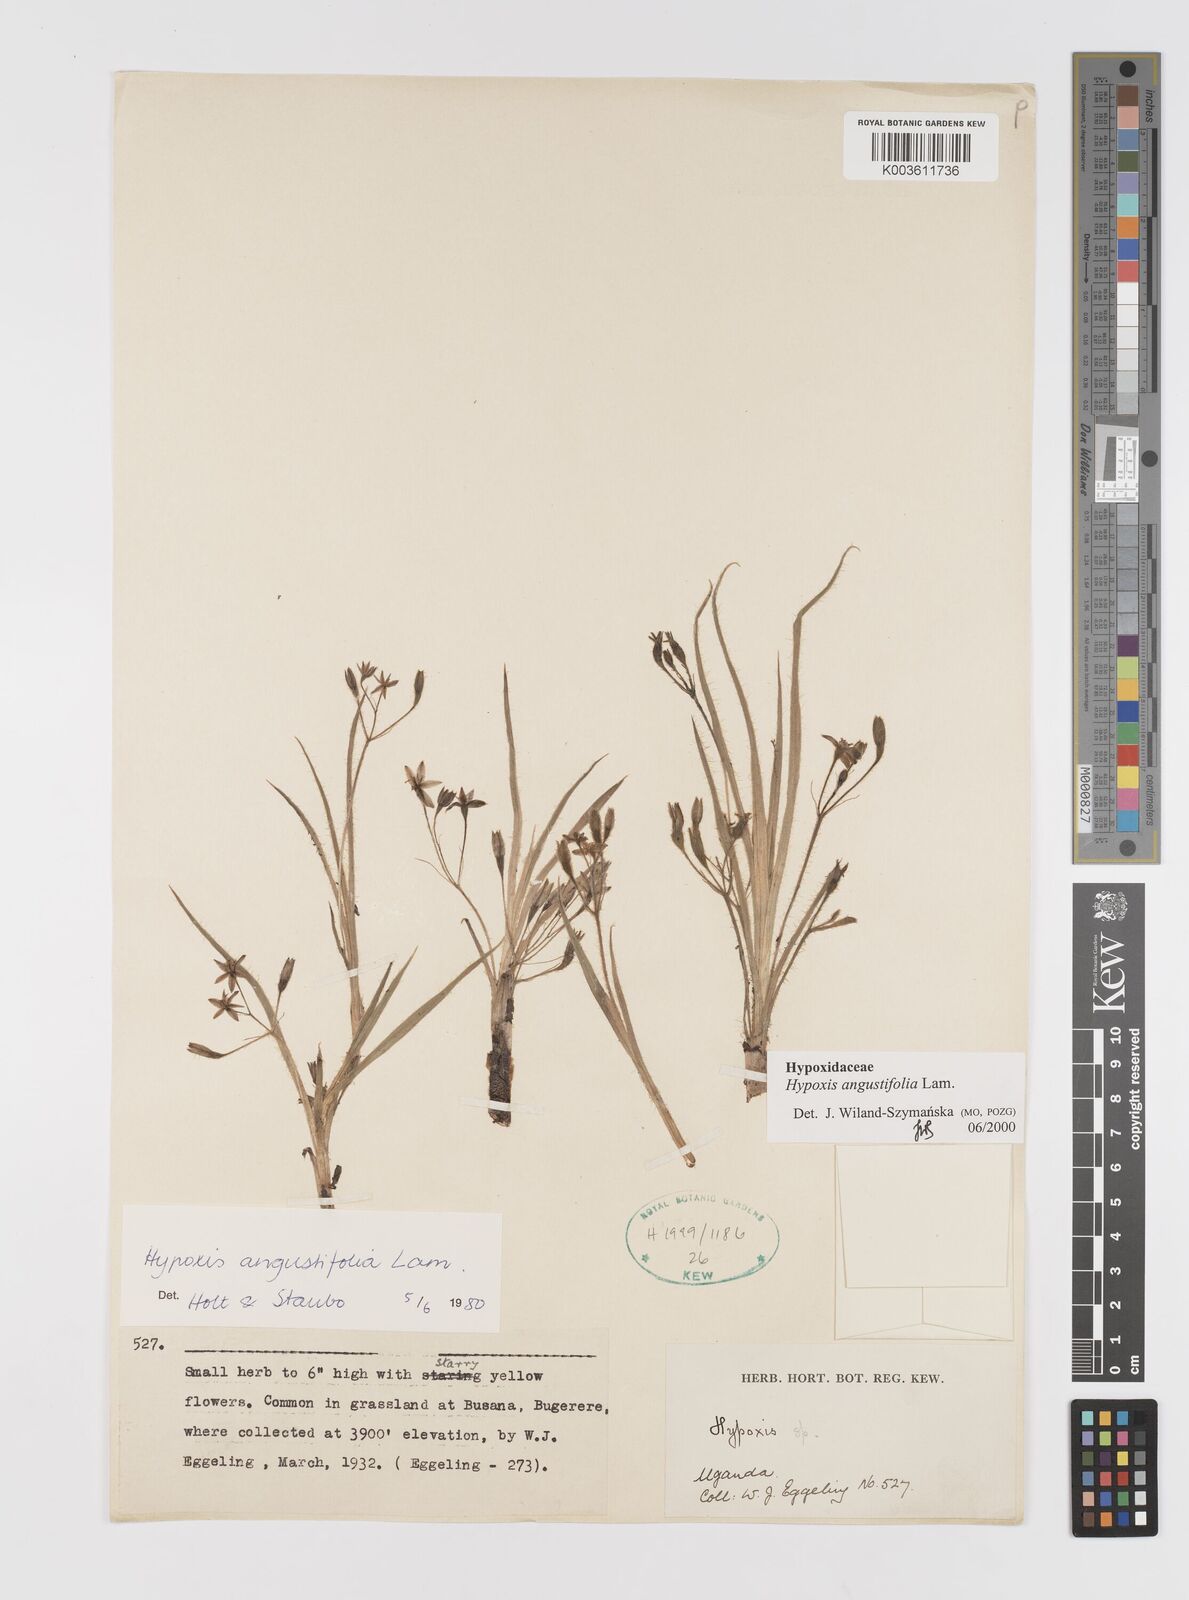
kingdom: Plantae
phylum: Tracheophyta
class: Liliopsida
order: Asparagales
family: Hypoxidaceae
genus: Hypoxis
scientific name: Hypoxis angustifolia
